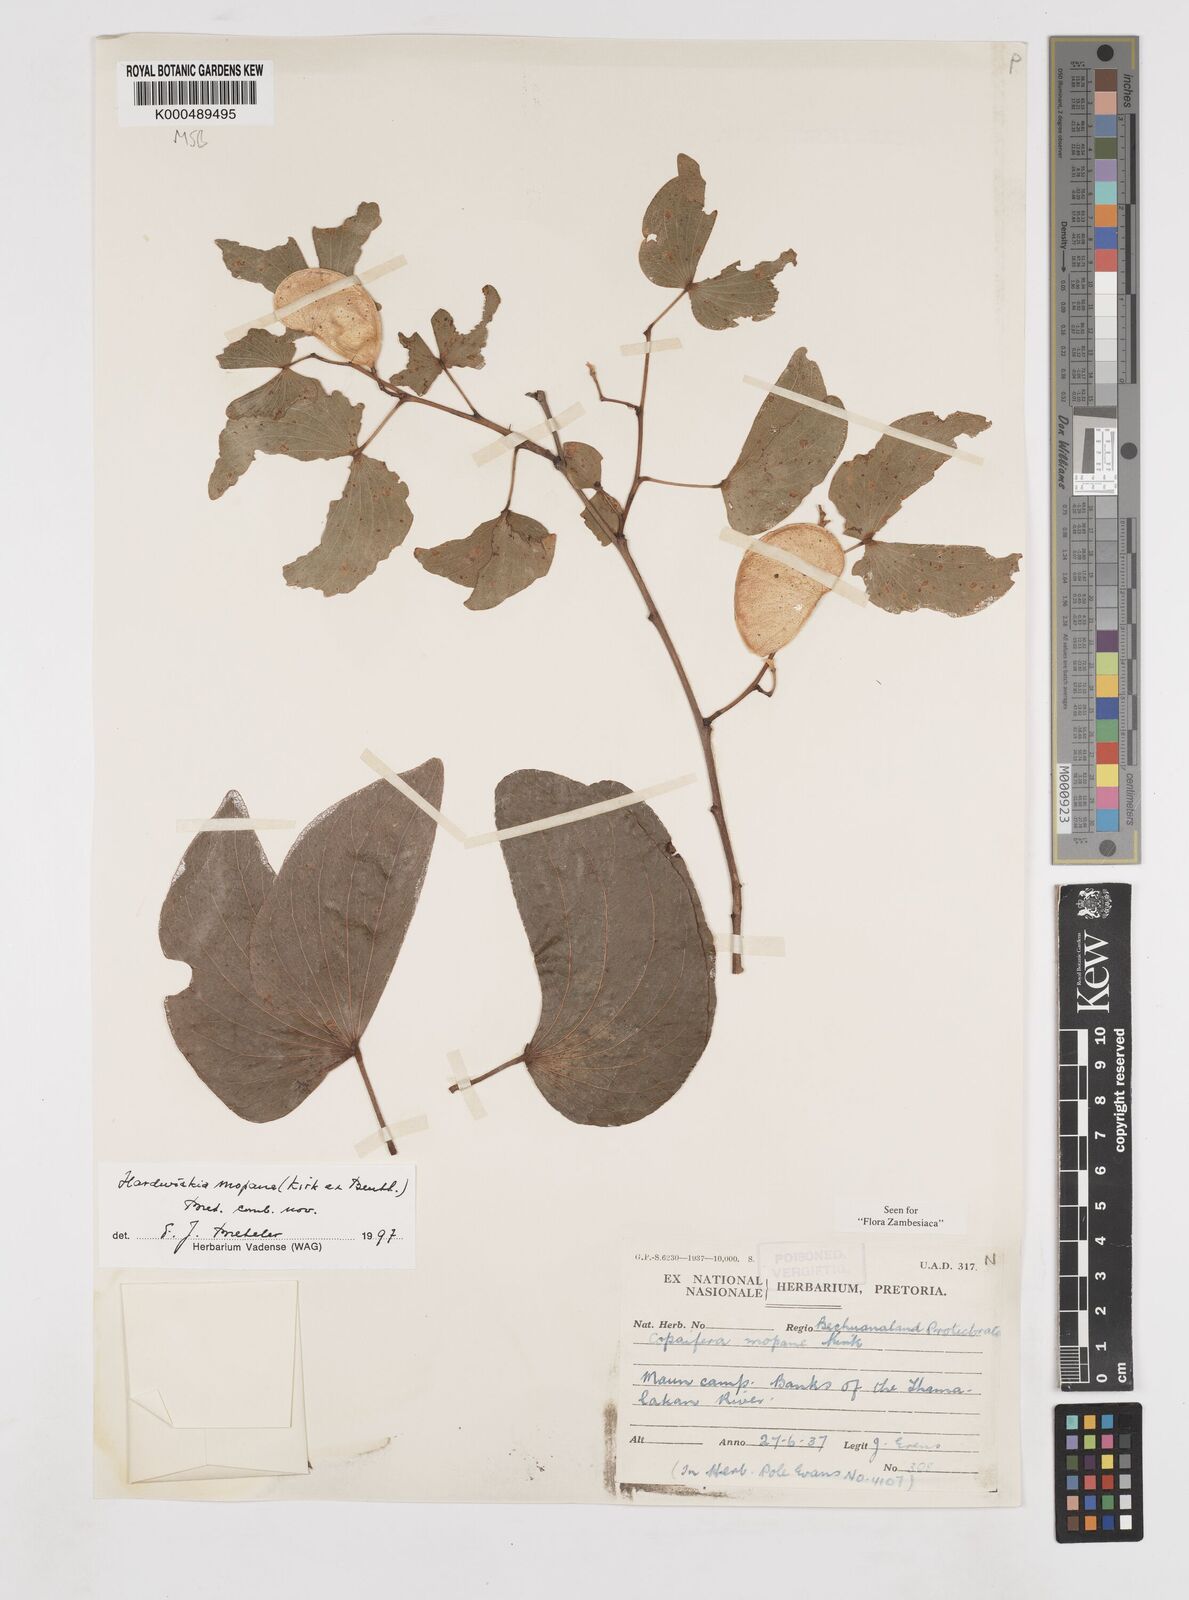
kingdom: Plantae
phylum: Tracheophyta
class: Magnoliopsida
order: Fabales
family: Fabaceae
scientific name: Fabaceae
